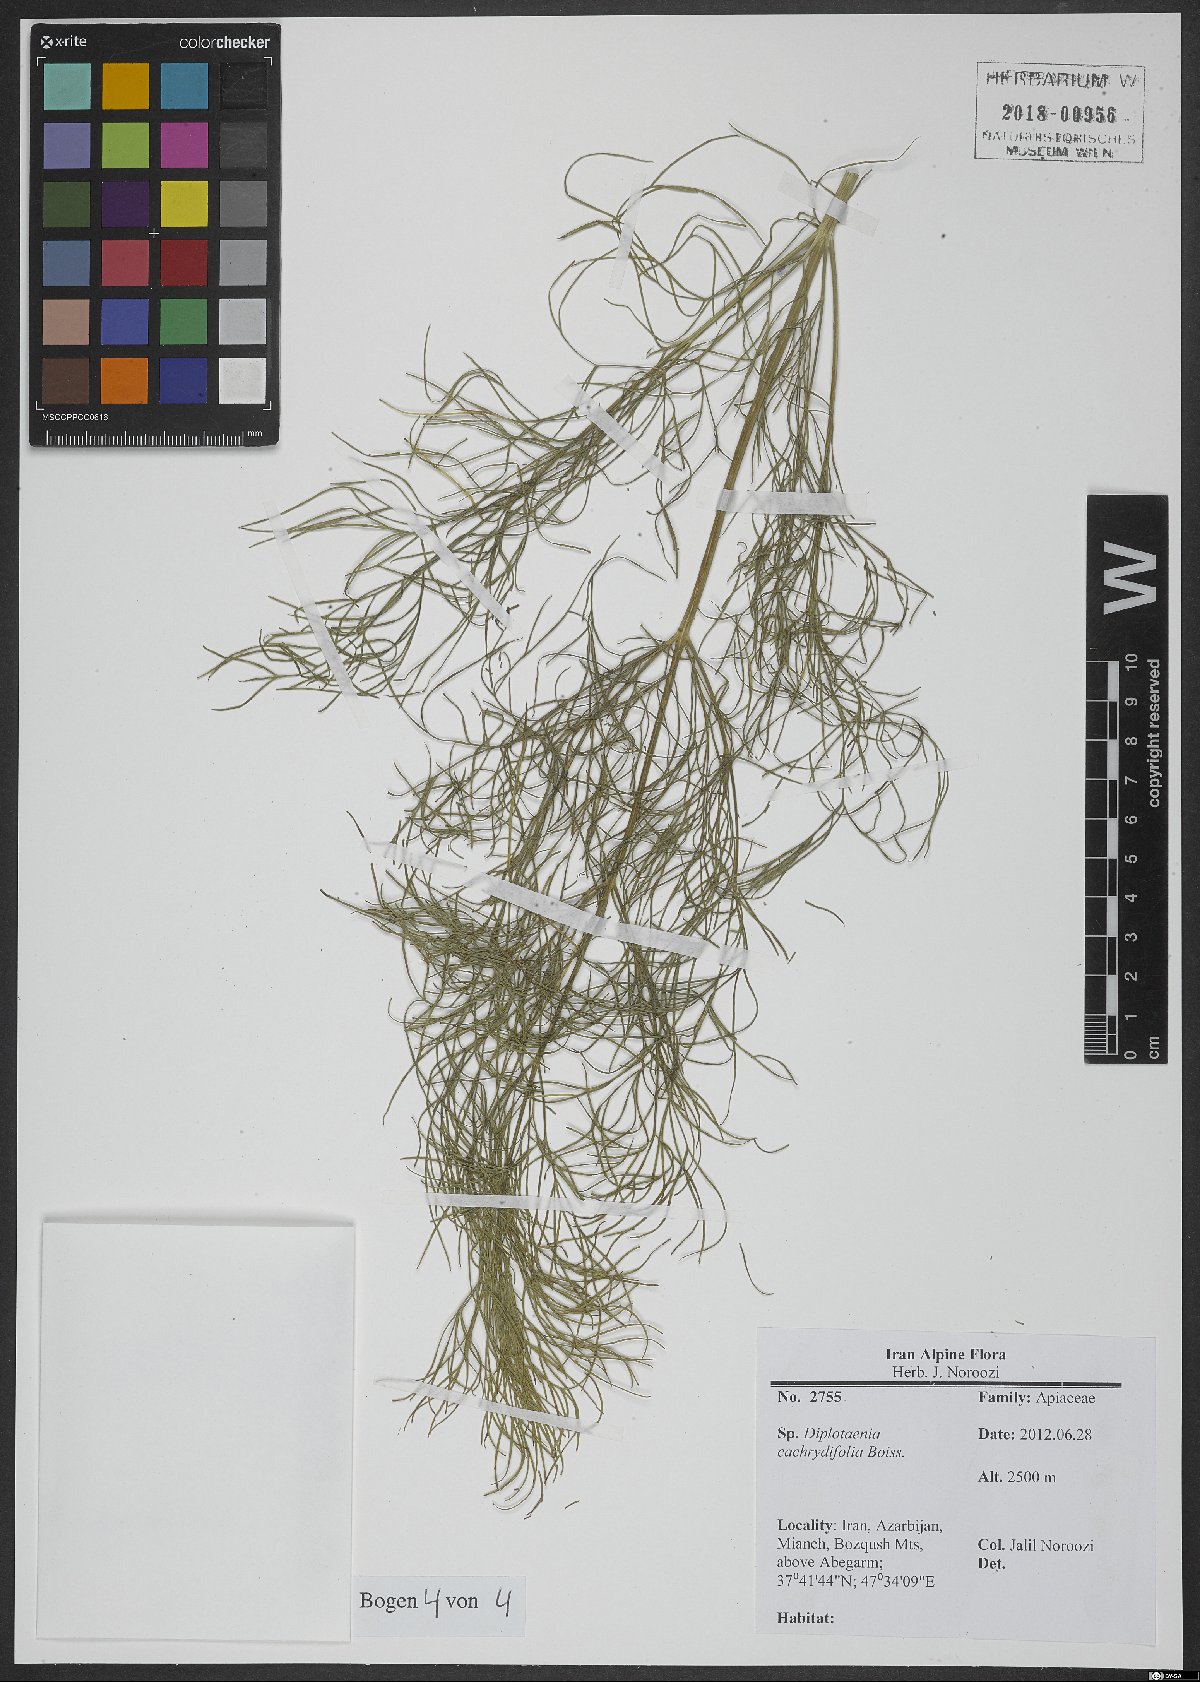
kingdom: Plantae
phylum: Tracheophyta
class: Magnoliopsida
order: Apiales
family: Apiaceae
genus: Diplotaenia
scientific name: Diplotaenia cachrydifolia
